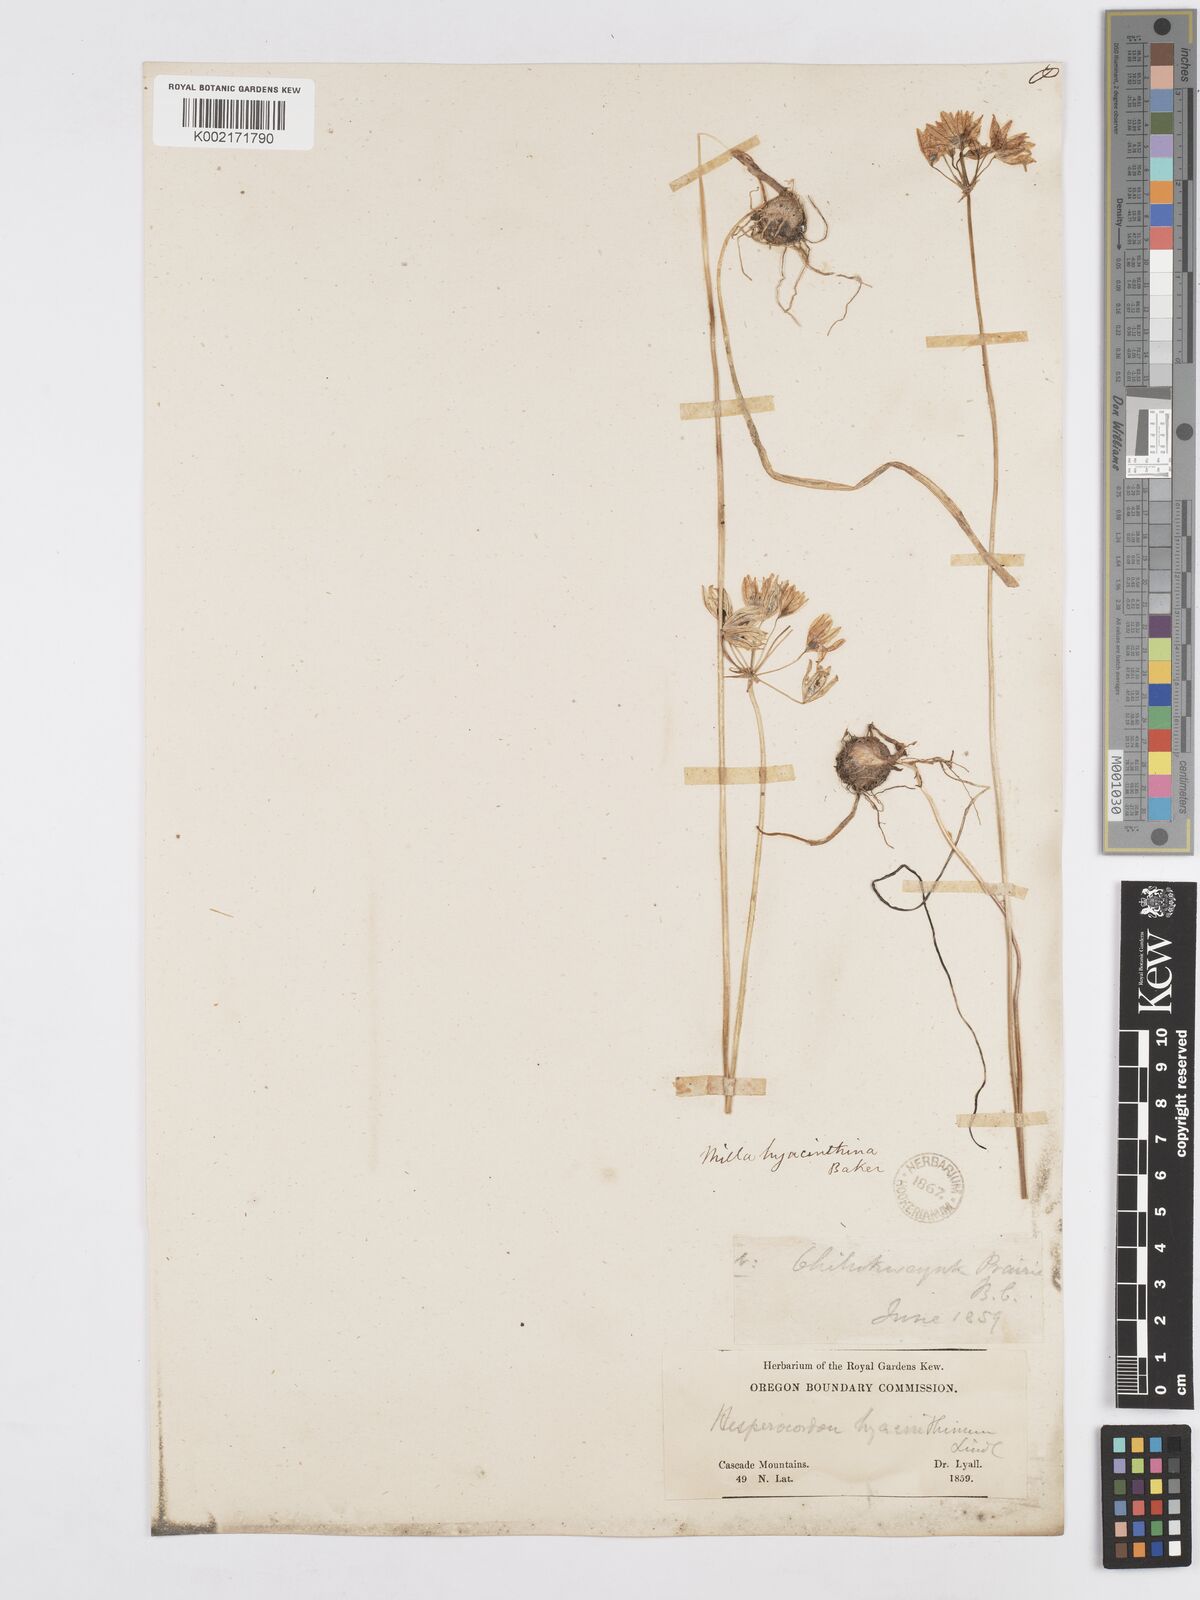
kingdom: Plantae
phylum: Tracheophyta
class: Liliopsida
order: Asparagales
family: Asparagaceae
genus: Triteleia
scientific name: Triteleia hyacinthina
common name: White brodiaea
